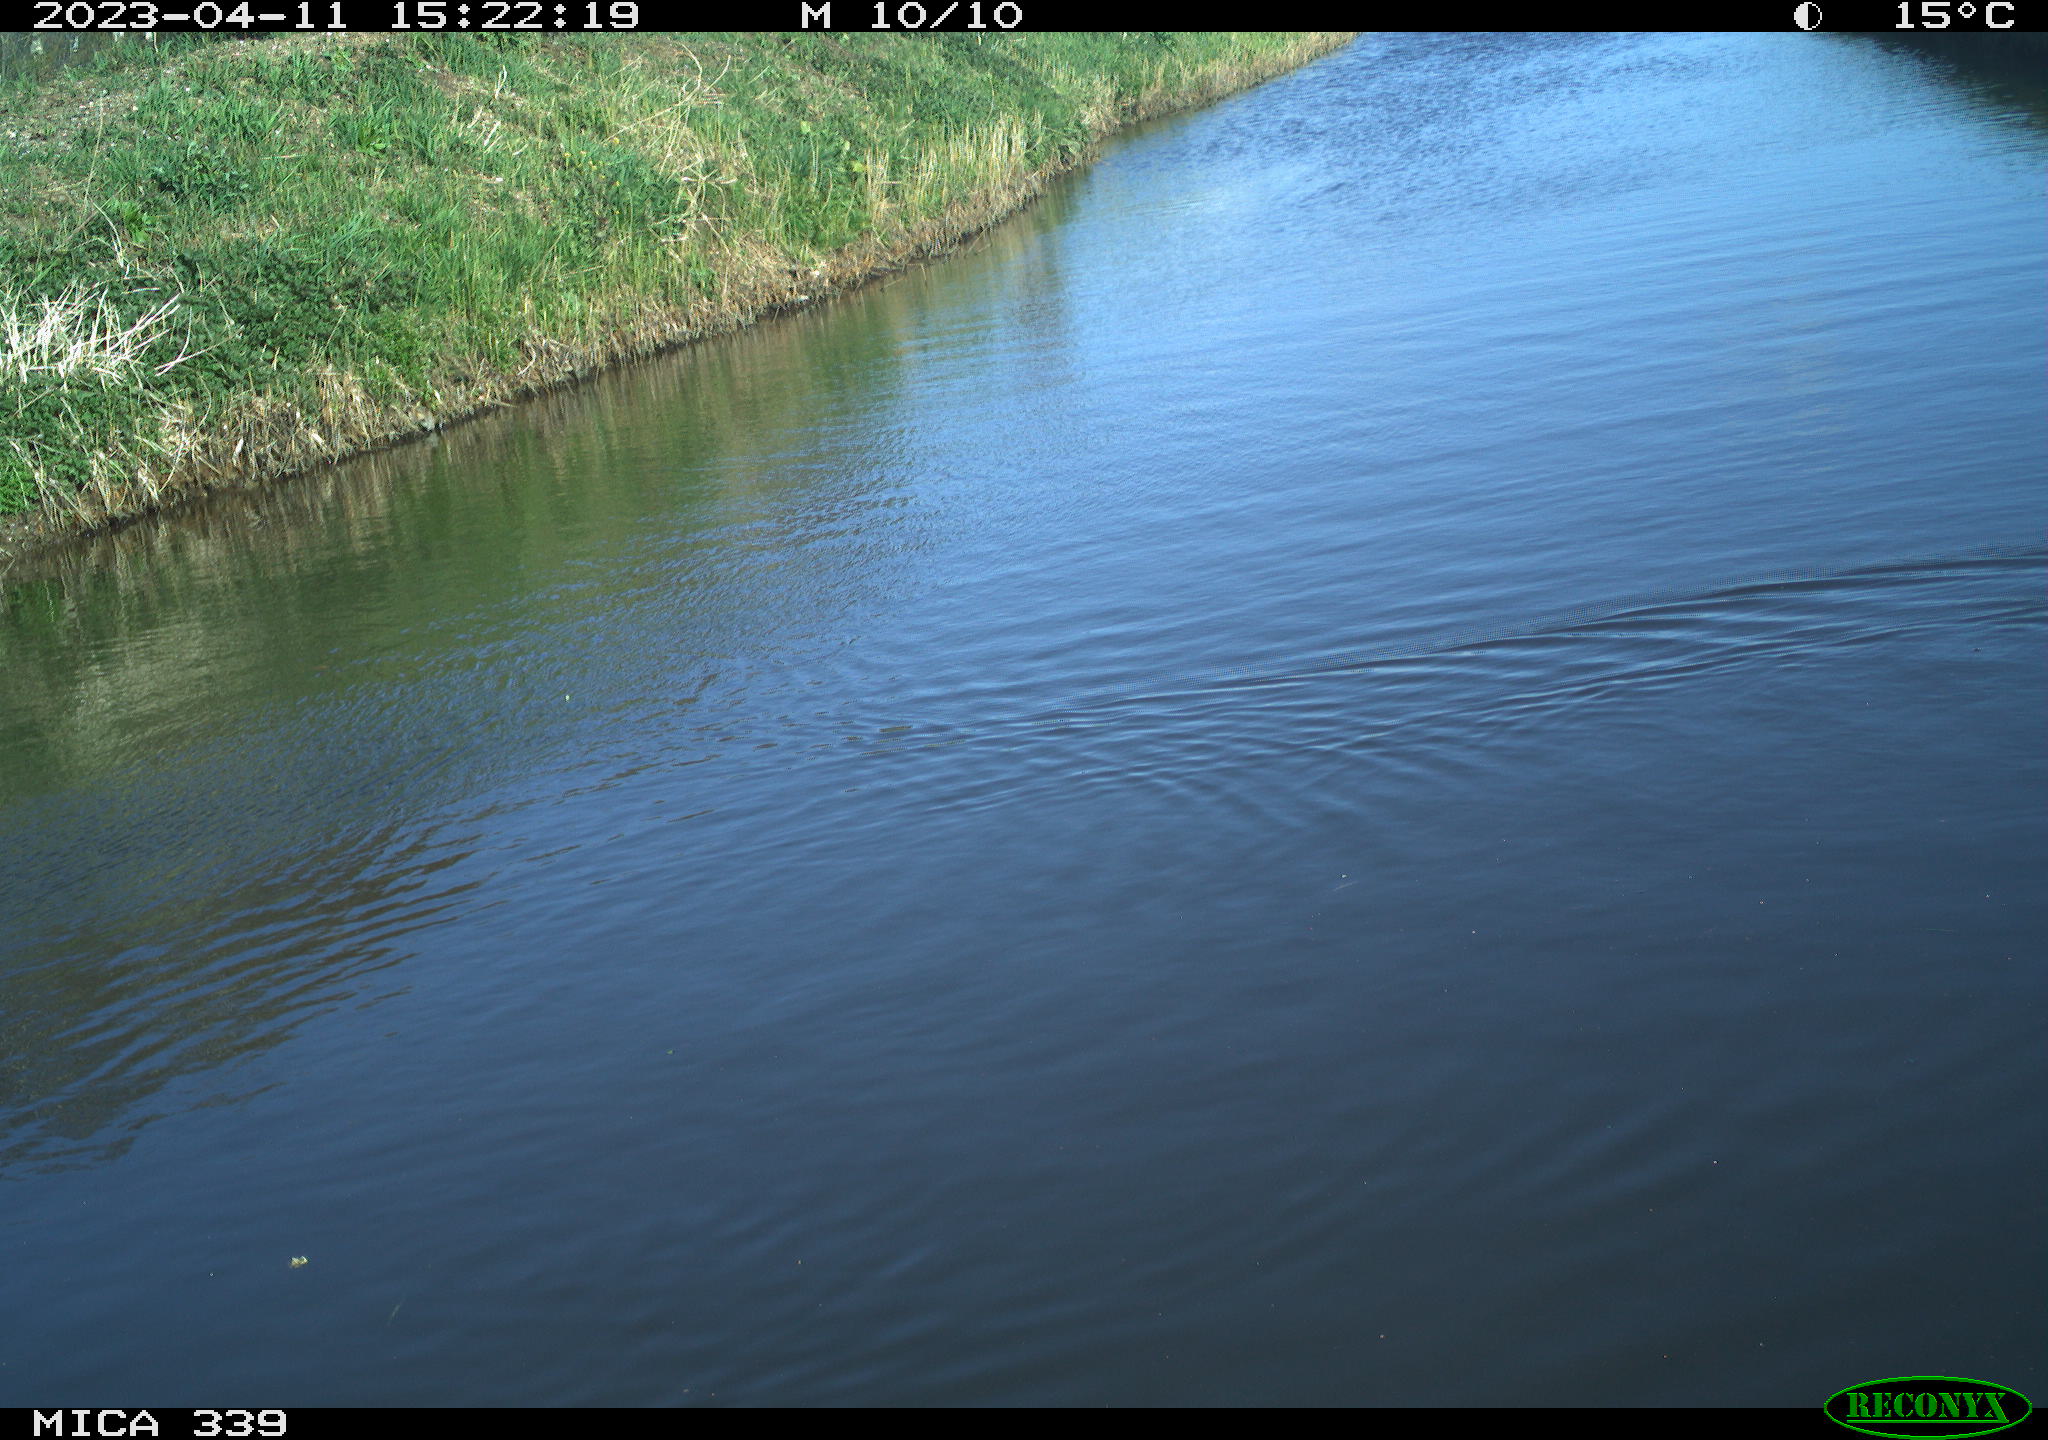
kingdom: Animalia
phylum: Chordata
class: Aves
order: Suliformes
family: Phalacrocoracidae
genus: Phalacrocorax
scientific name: Phalacrocorax carbo
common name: Great cormorant
